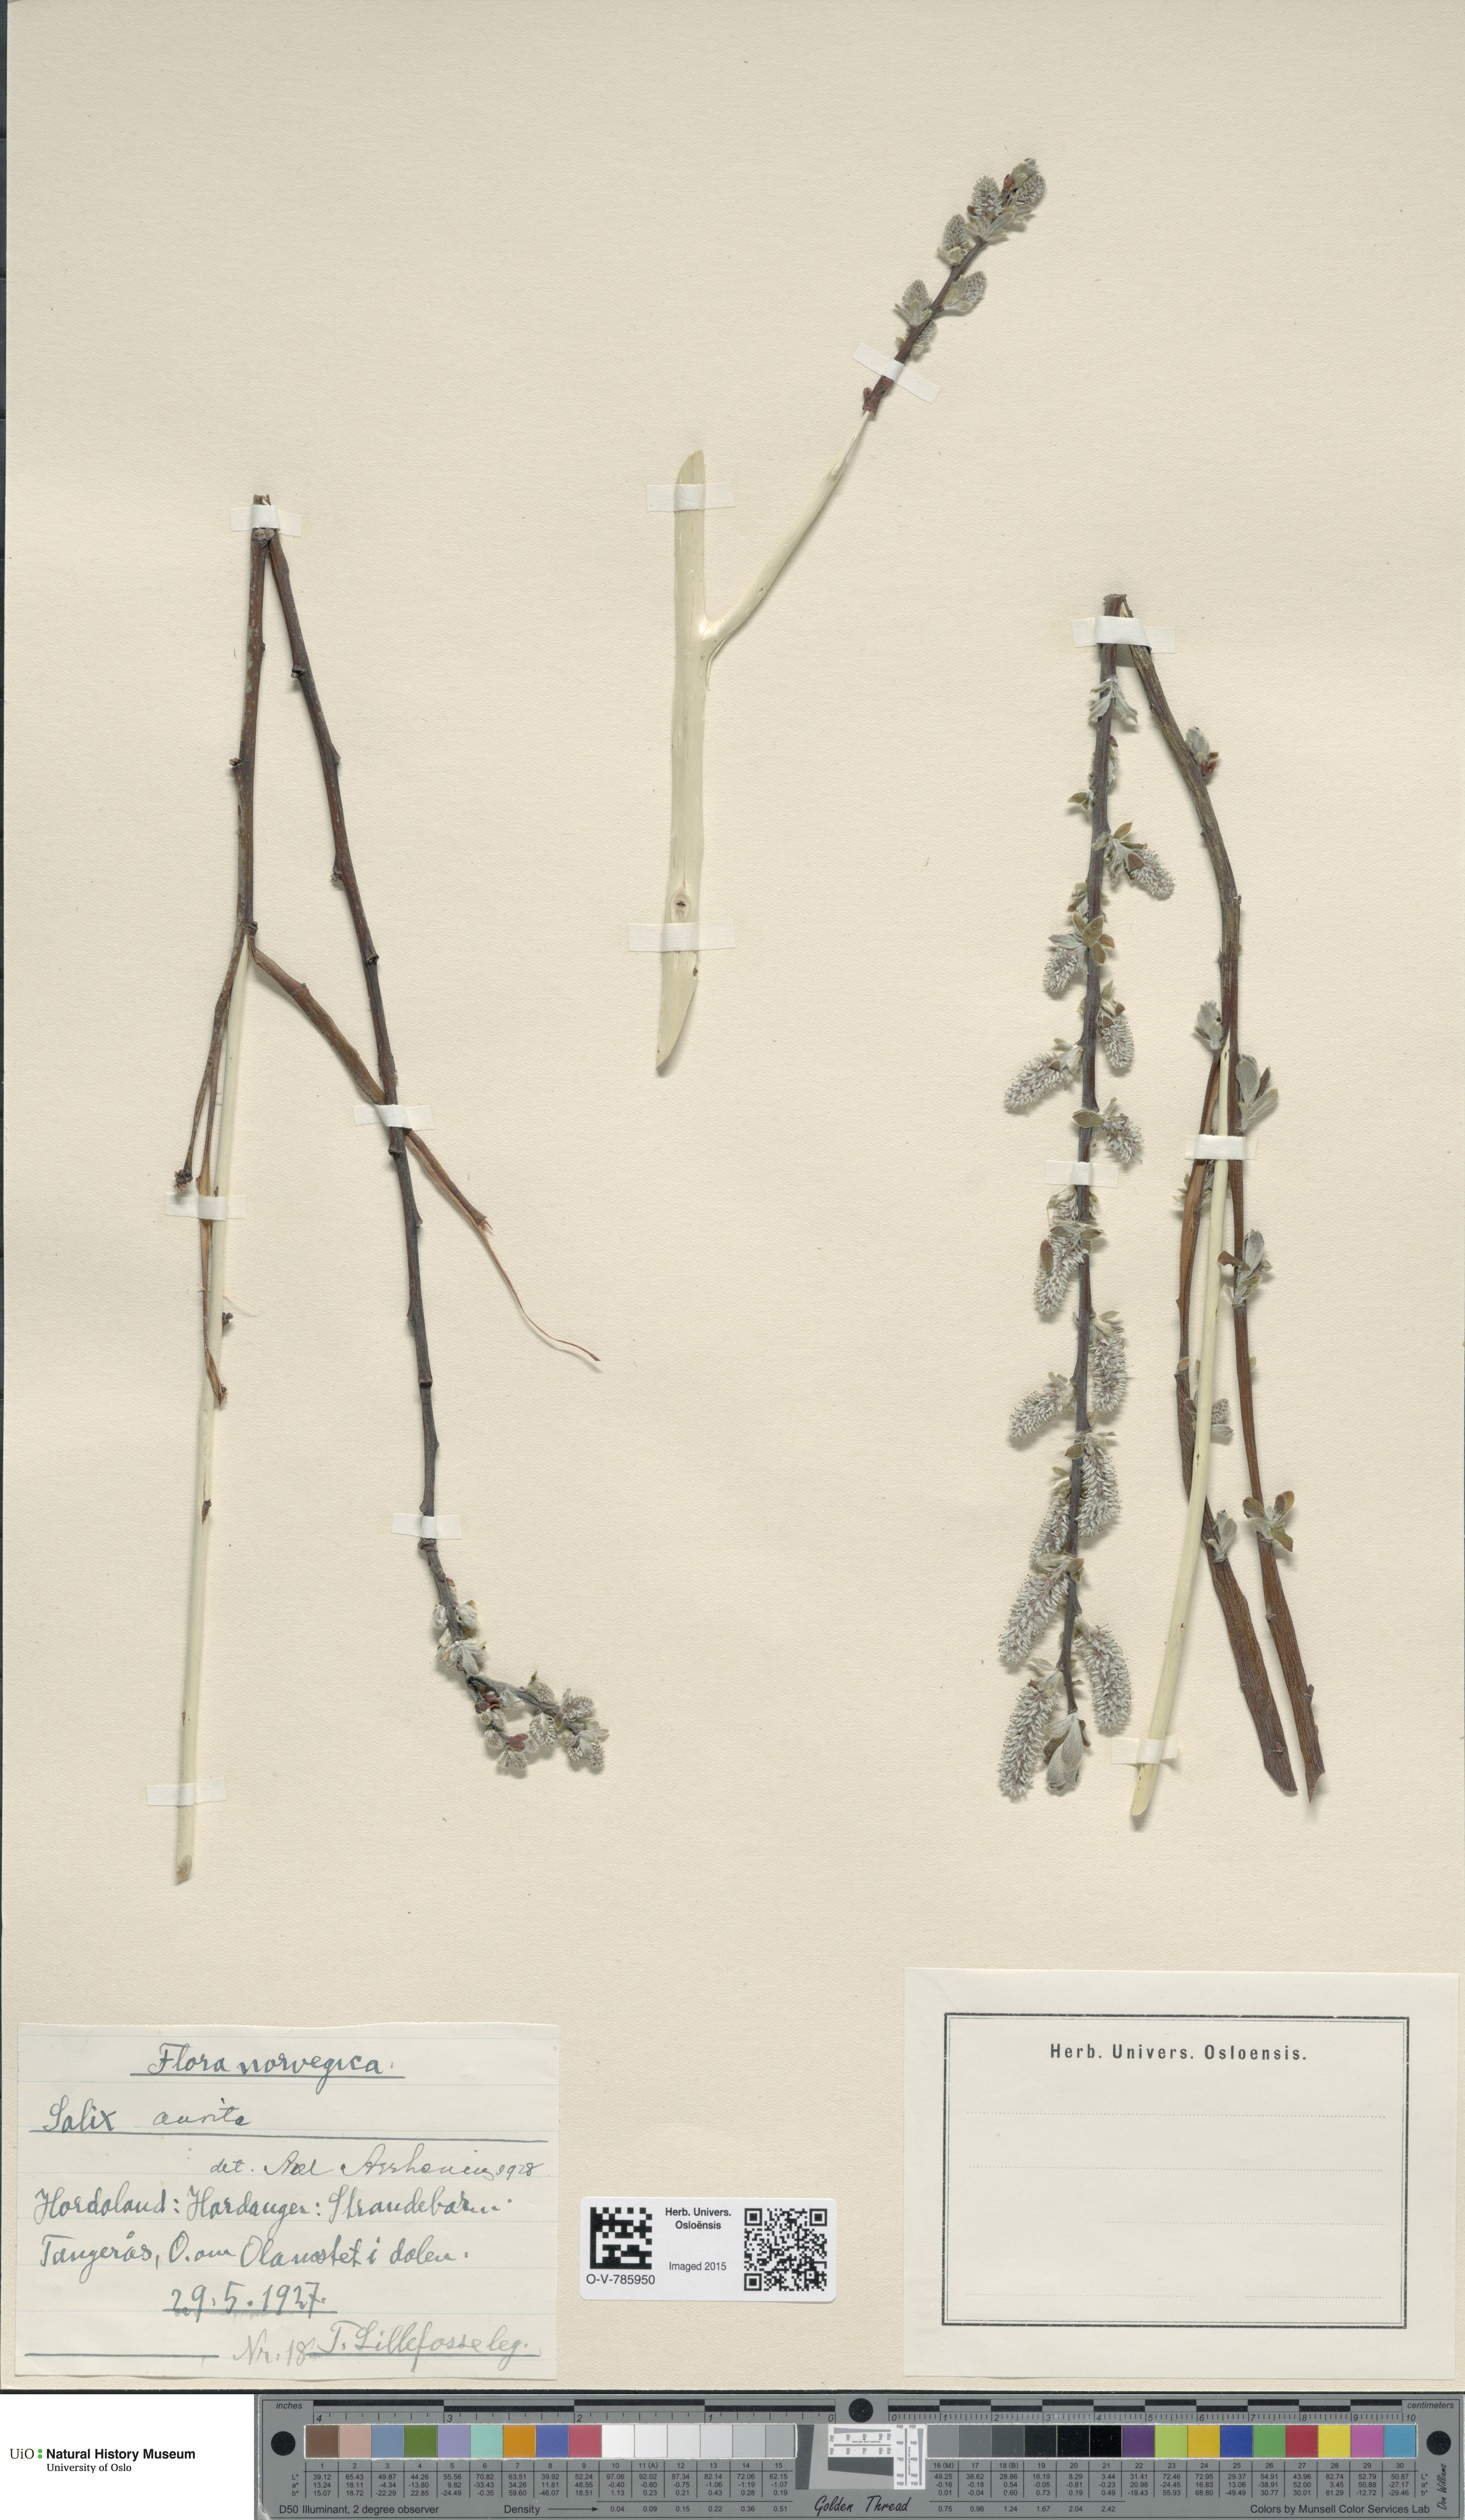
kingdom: Plantae
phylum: Tracheophyta
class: Magnoliopsida
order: Malpighiales
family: Salicaceae
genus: Salix
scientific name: Salix aurita
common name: Eared willow
